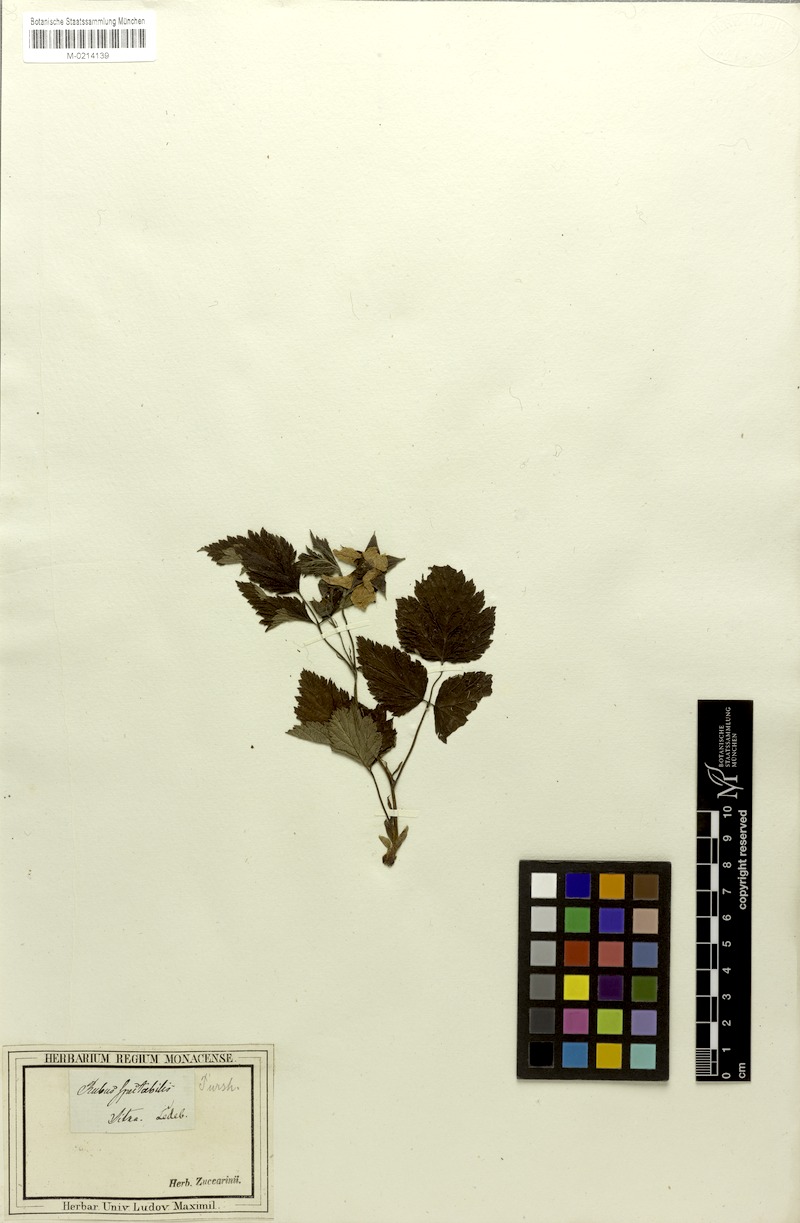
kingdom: Plantae
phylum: Tracheophyta
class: Magnoliopsida
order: Rosales
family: Rosaceae
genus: Rubus
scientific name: Rubus spectabilis
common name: Salmonberry
